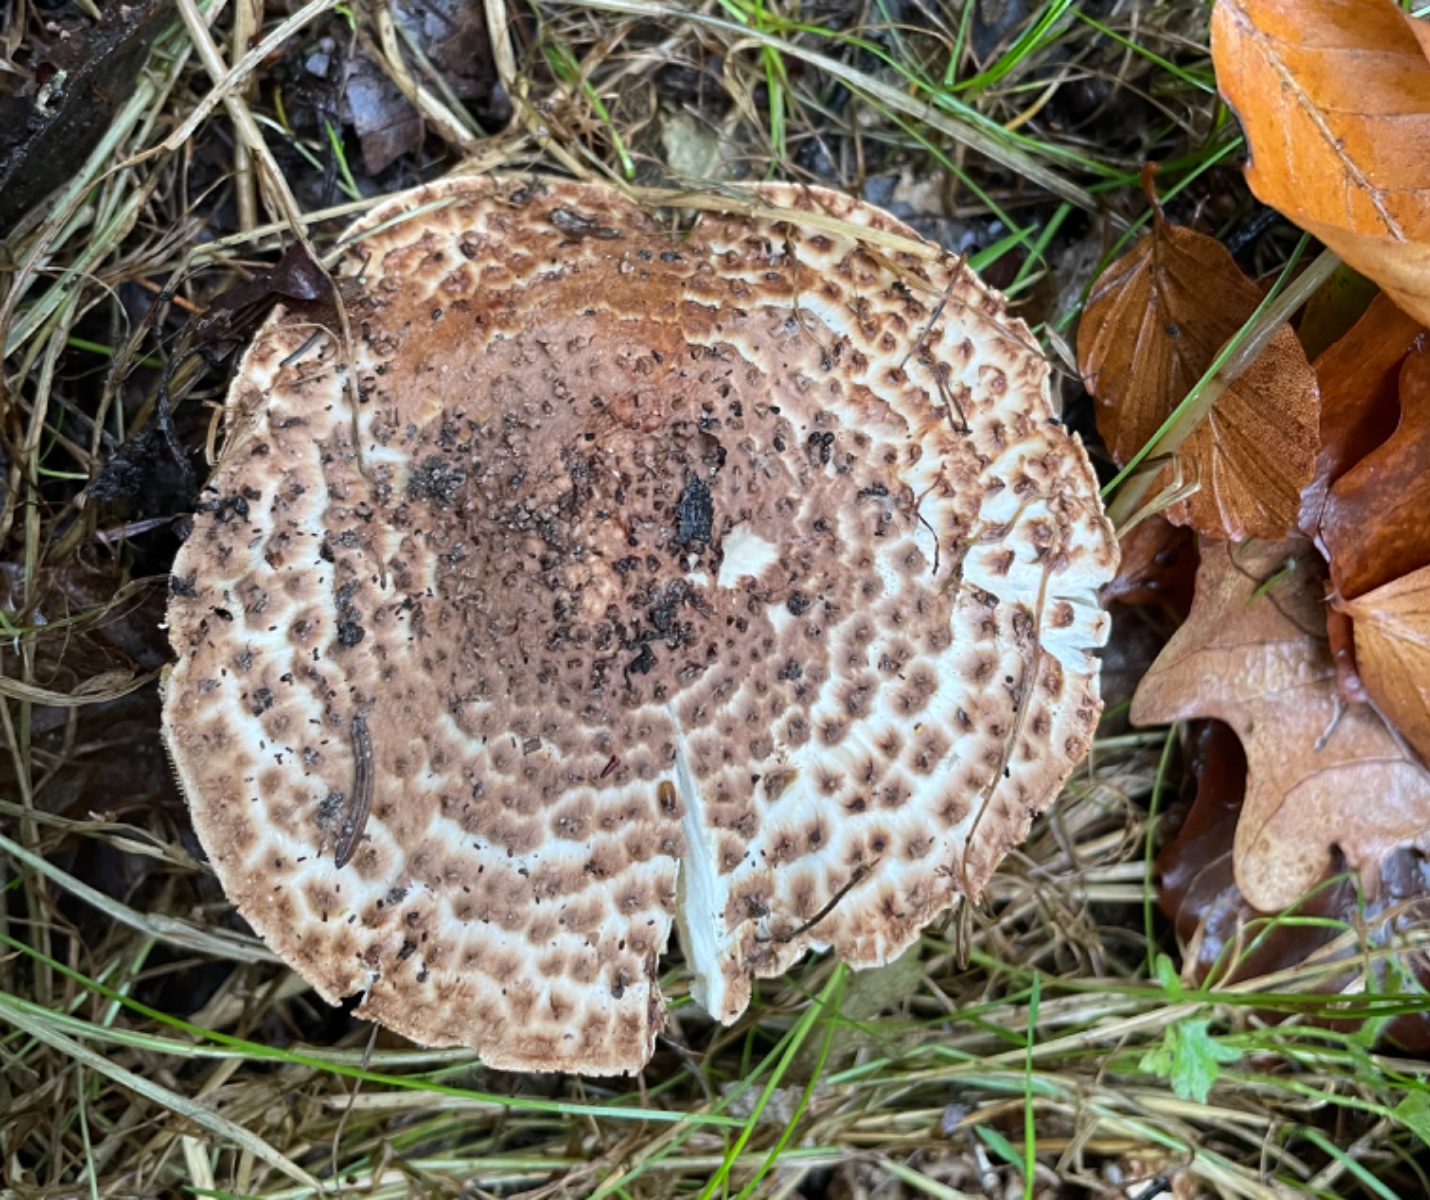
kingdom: Fungi
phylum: Basidiomycota
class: Agaricomycetes
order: Agaricales
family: Agaricaceae
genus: Echinoderma
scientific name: Echinoderma asperum
